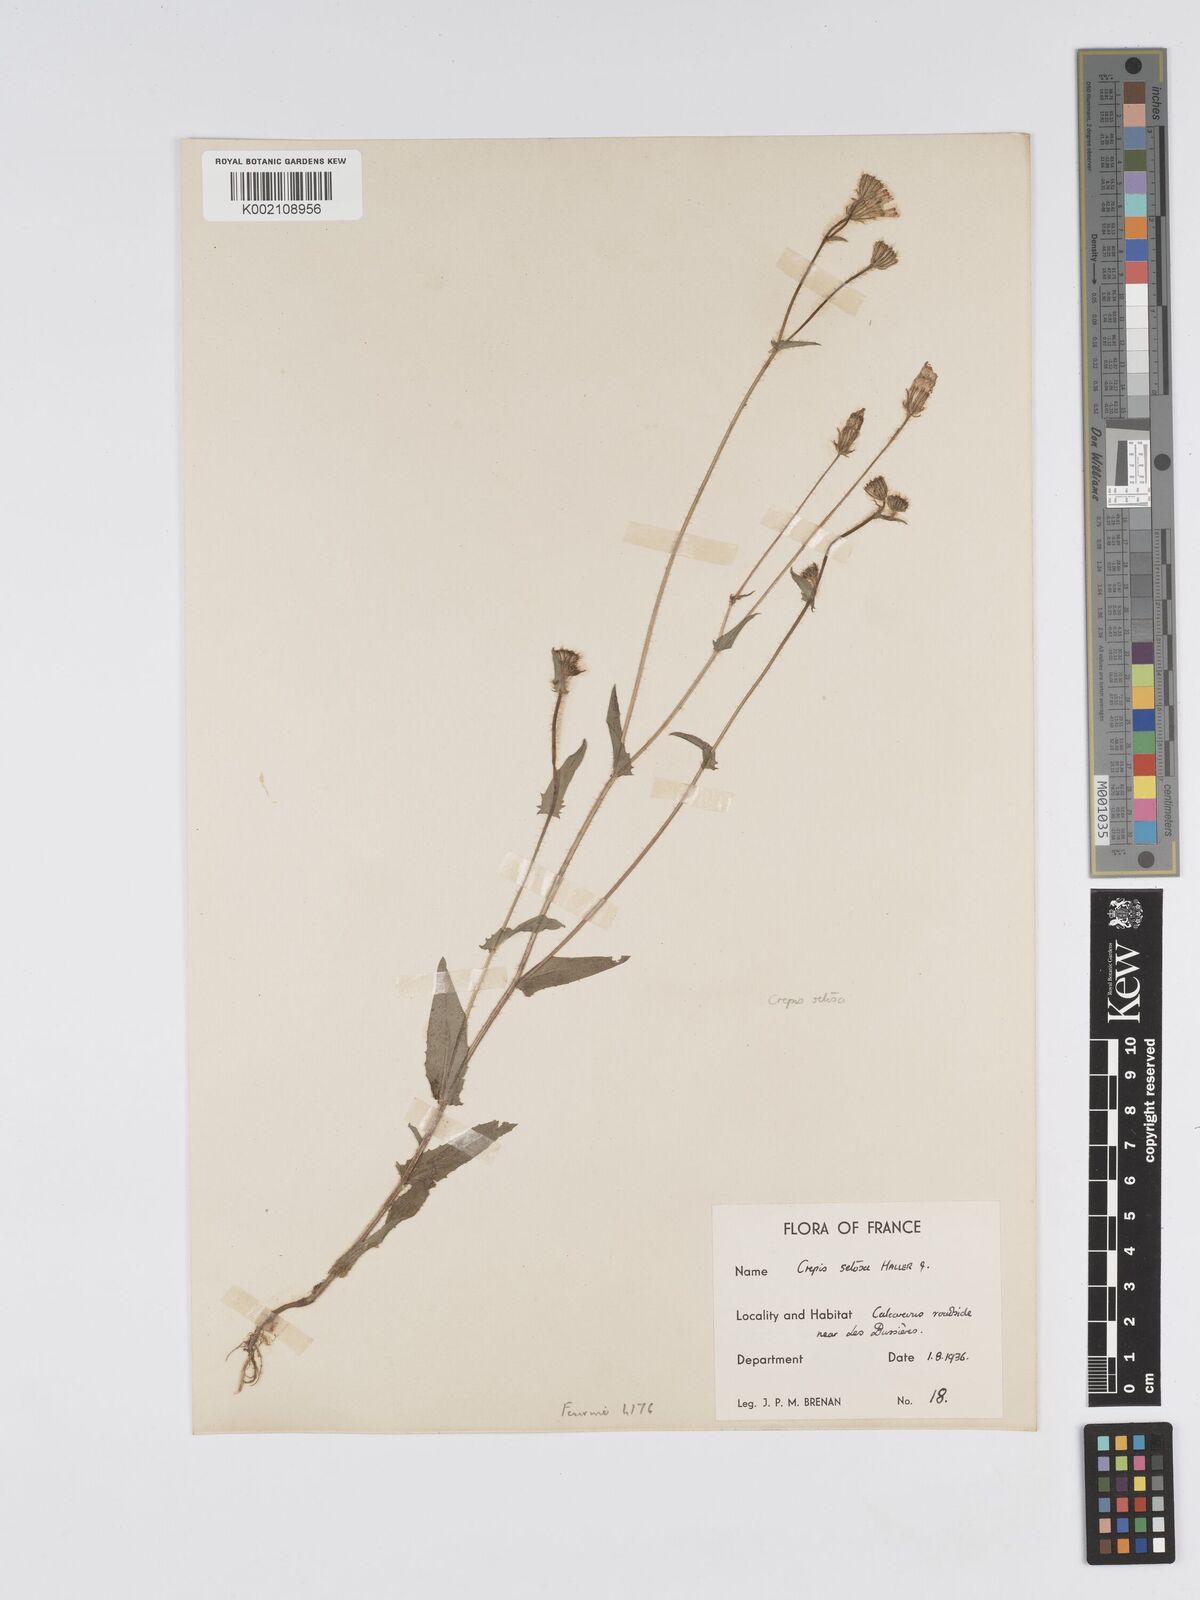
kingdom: Plantae
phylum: Tracheophyta
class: Magnoliopsida
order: Asterales
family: Asteraceae
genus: Crepis
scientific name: Crepis setosa
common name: Bristly hawk's-beard
